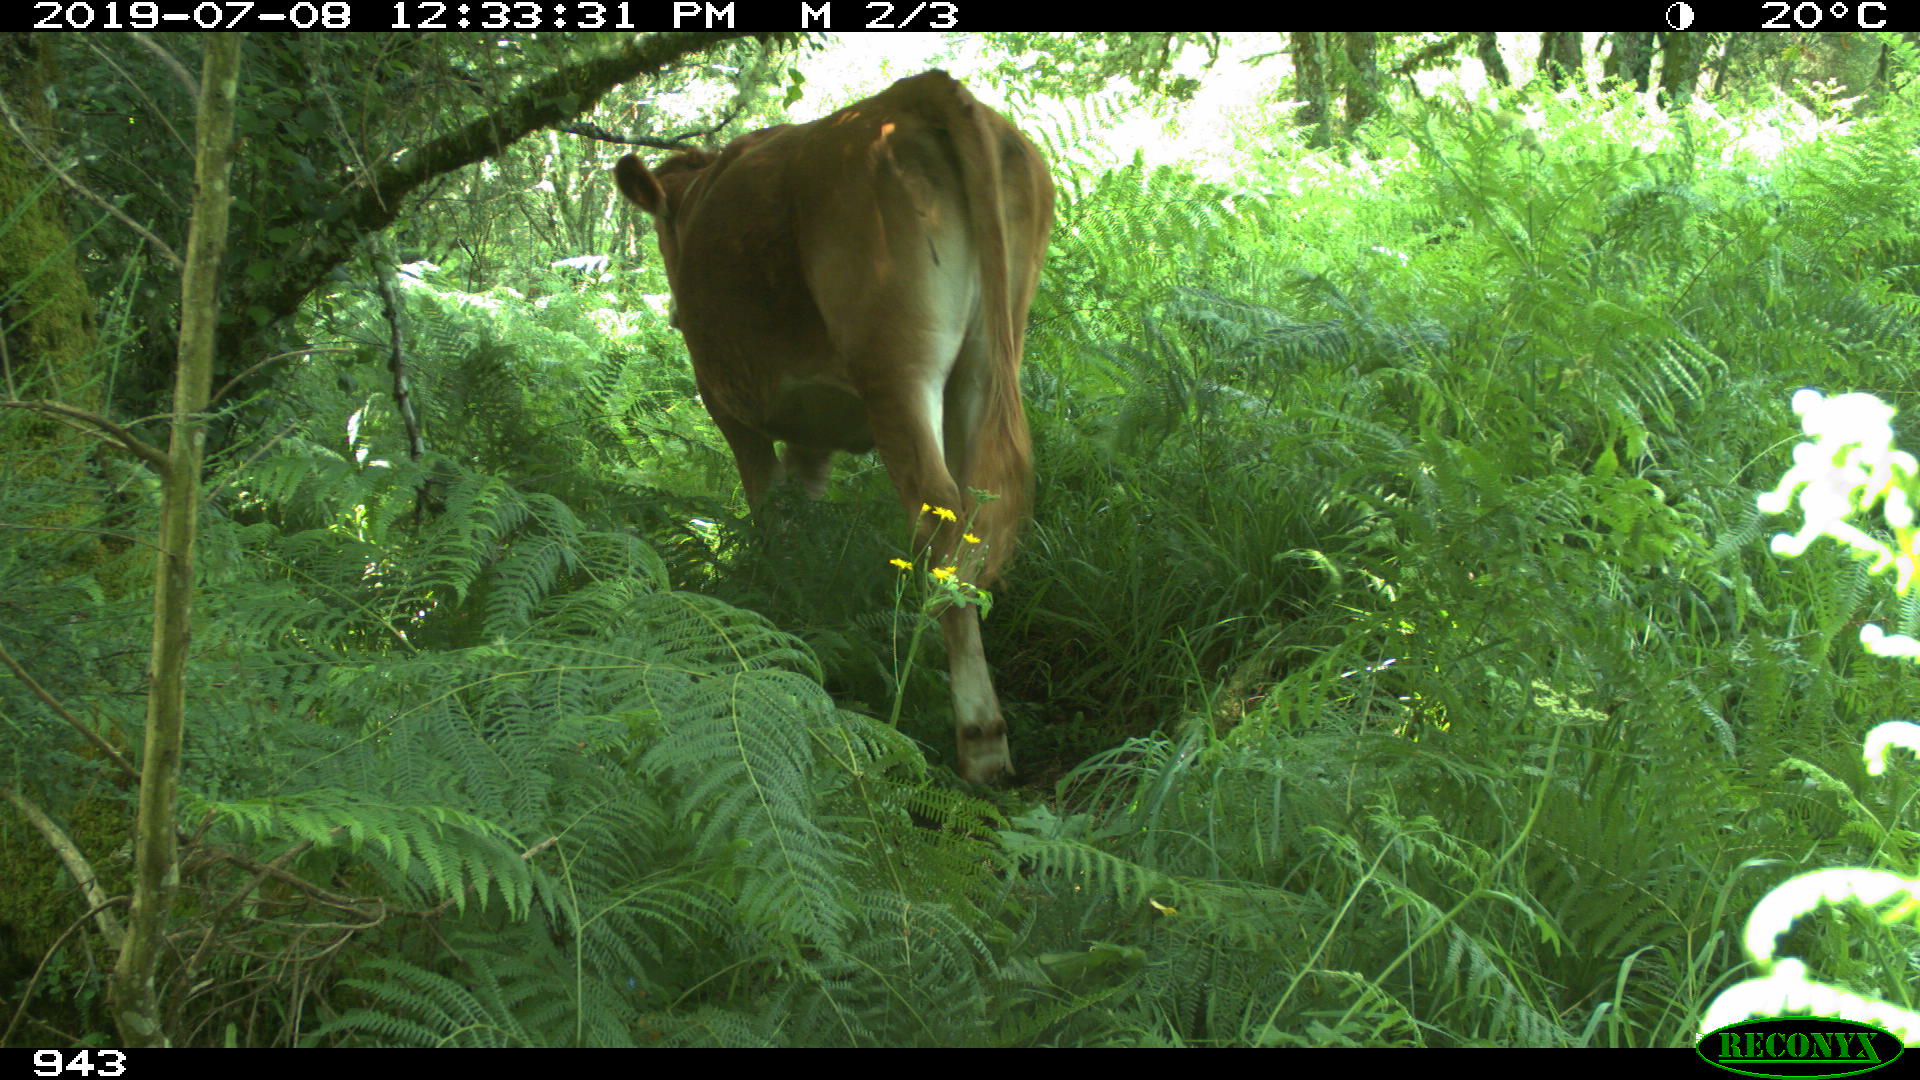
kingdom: Animalia
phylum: Chordata
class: Mammalia
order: Artiodactyla
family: Bovidae
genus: Bos
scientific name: Bos taurus
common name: Domesticated cattle
